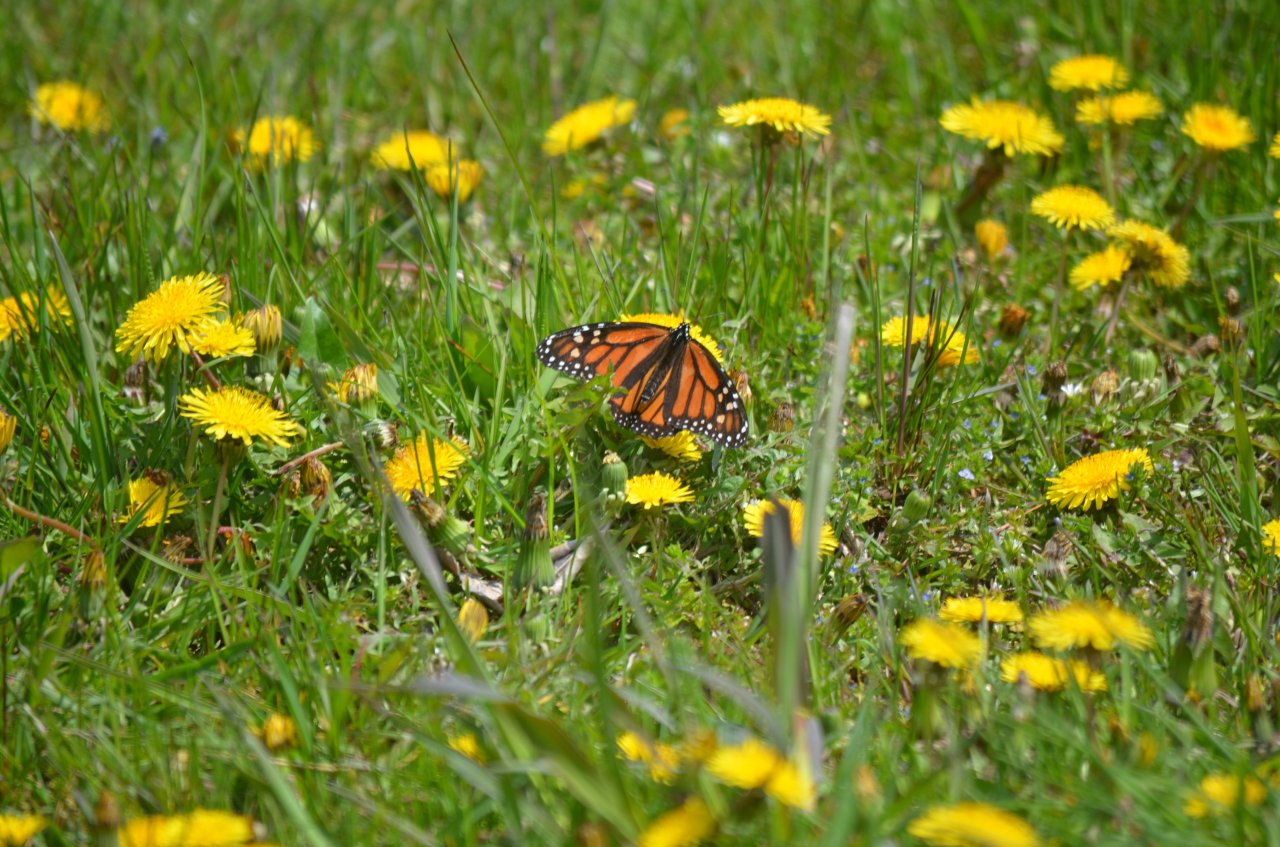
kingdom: Animalia
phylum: Arthropoda
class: Insecta
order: Lepidoptera
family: Nymphalidae
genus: Danaus
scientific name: Danaus plexippus
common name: Monarch
